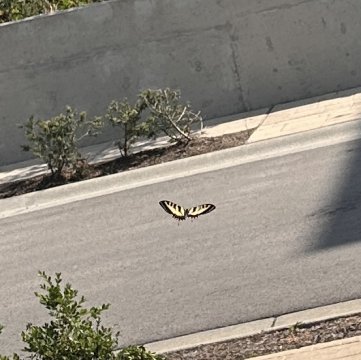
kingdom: Animalia
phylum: Arthropoda
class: Insecta
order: Lepidoptera
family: Papilionidae
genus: Pterourus
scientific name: Pterourus canadensis
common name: Canadian Tiger Swallowtail
